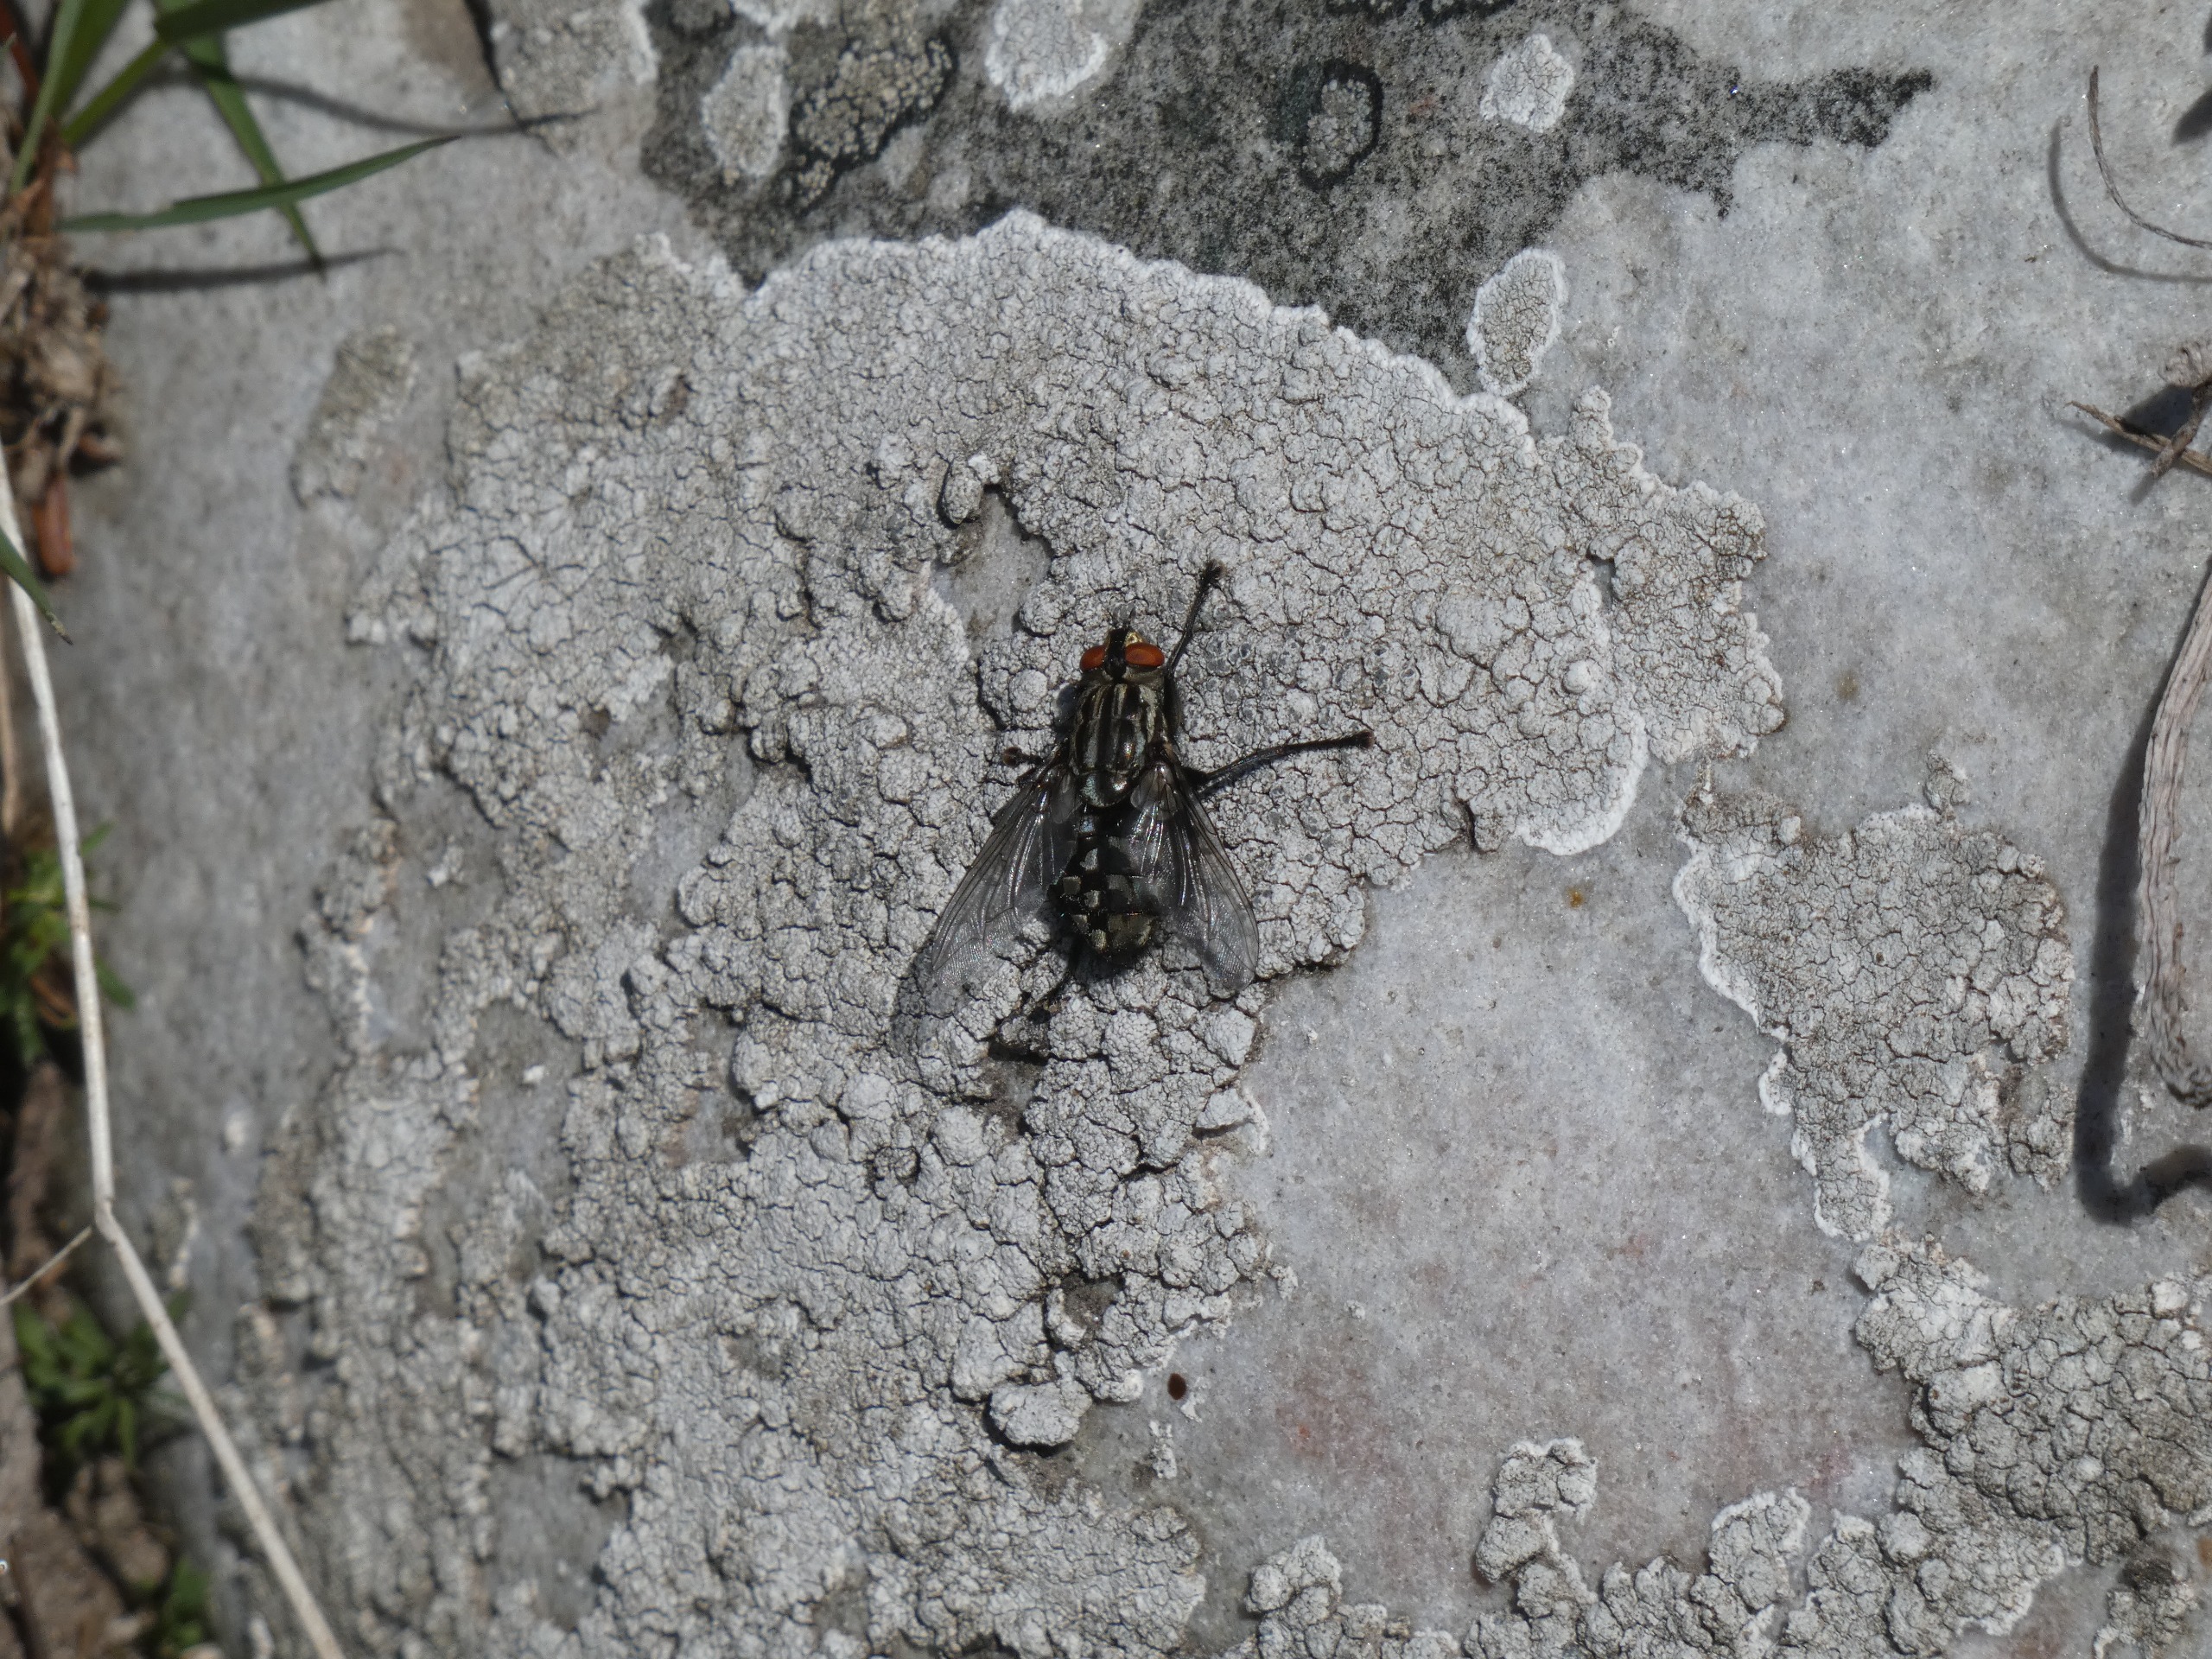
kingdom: Animalia
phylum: Arthropoda
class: Insecta
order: Diptera
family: Sarcophagidae
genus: Sarcophaga
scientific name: Sarcophaga
